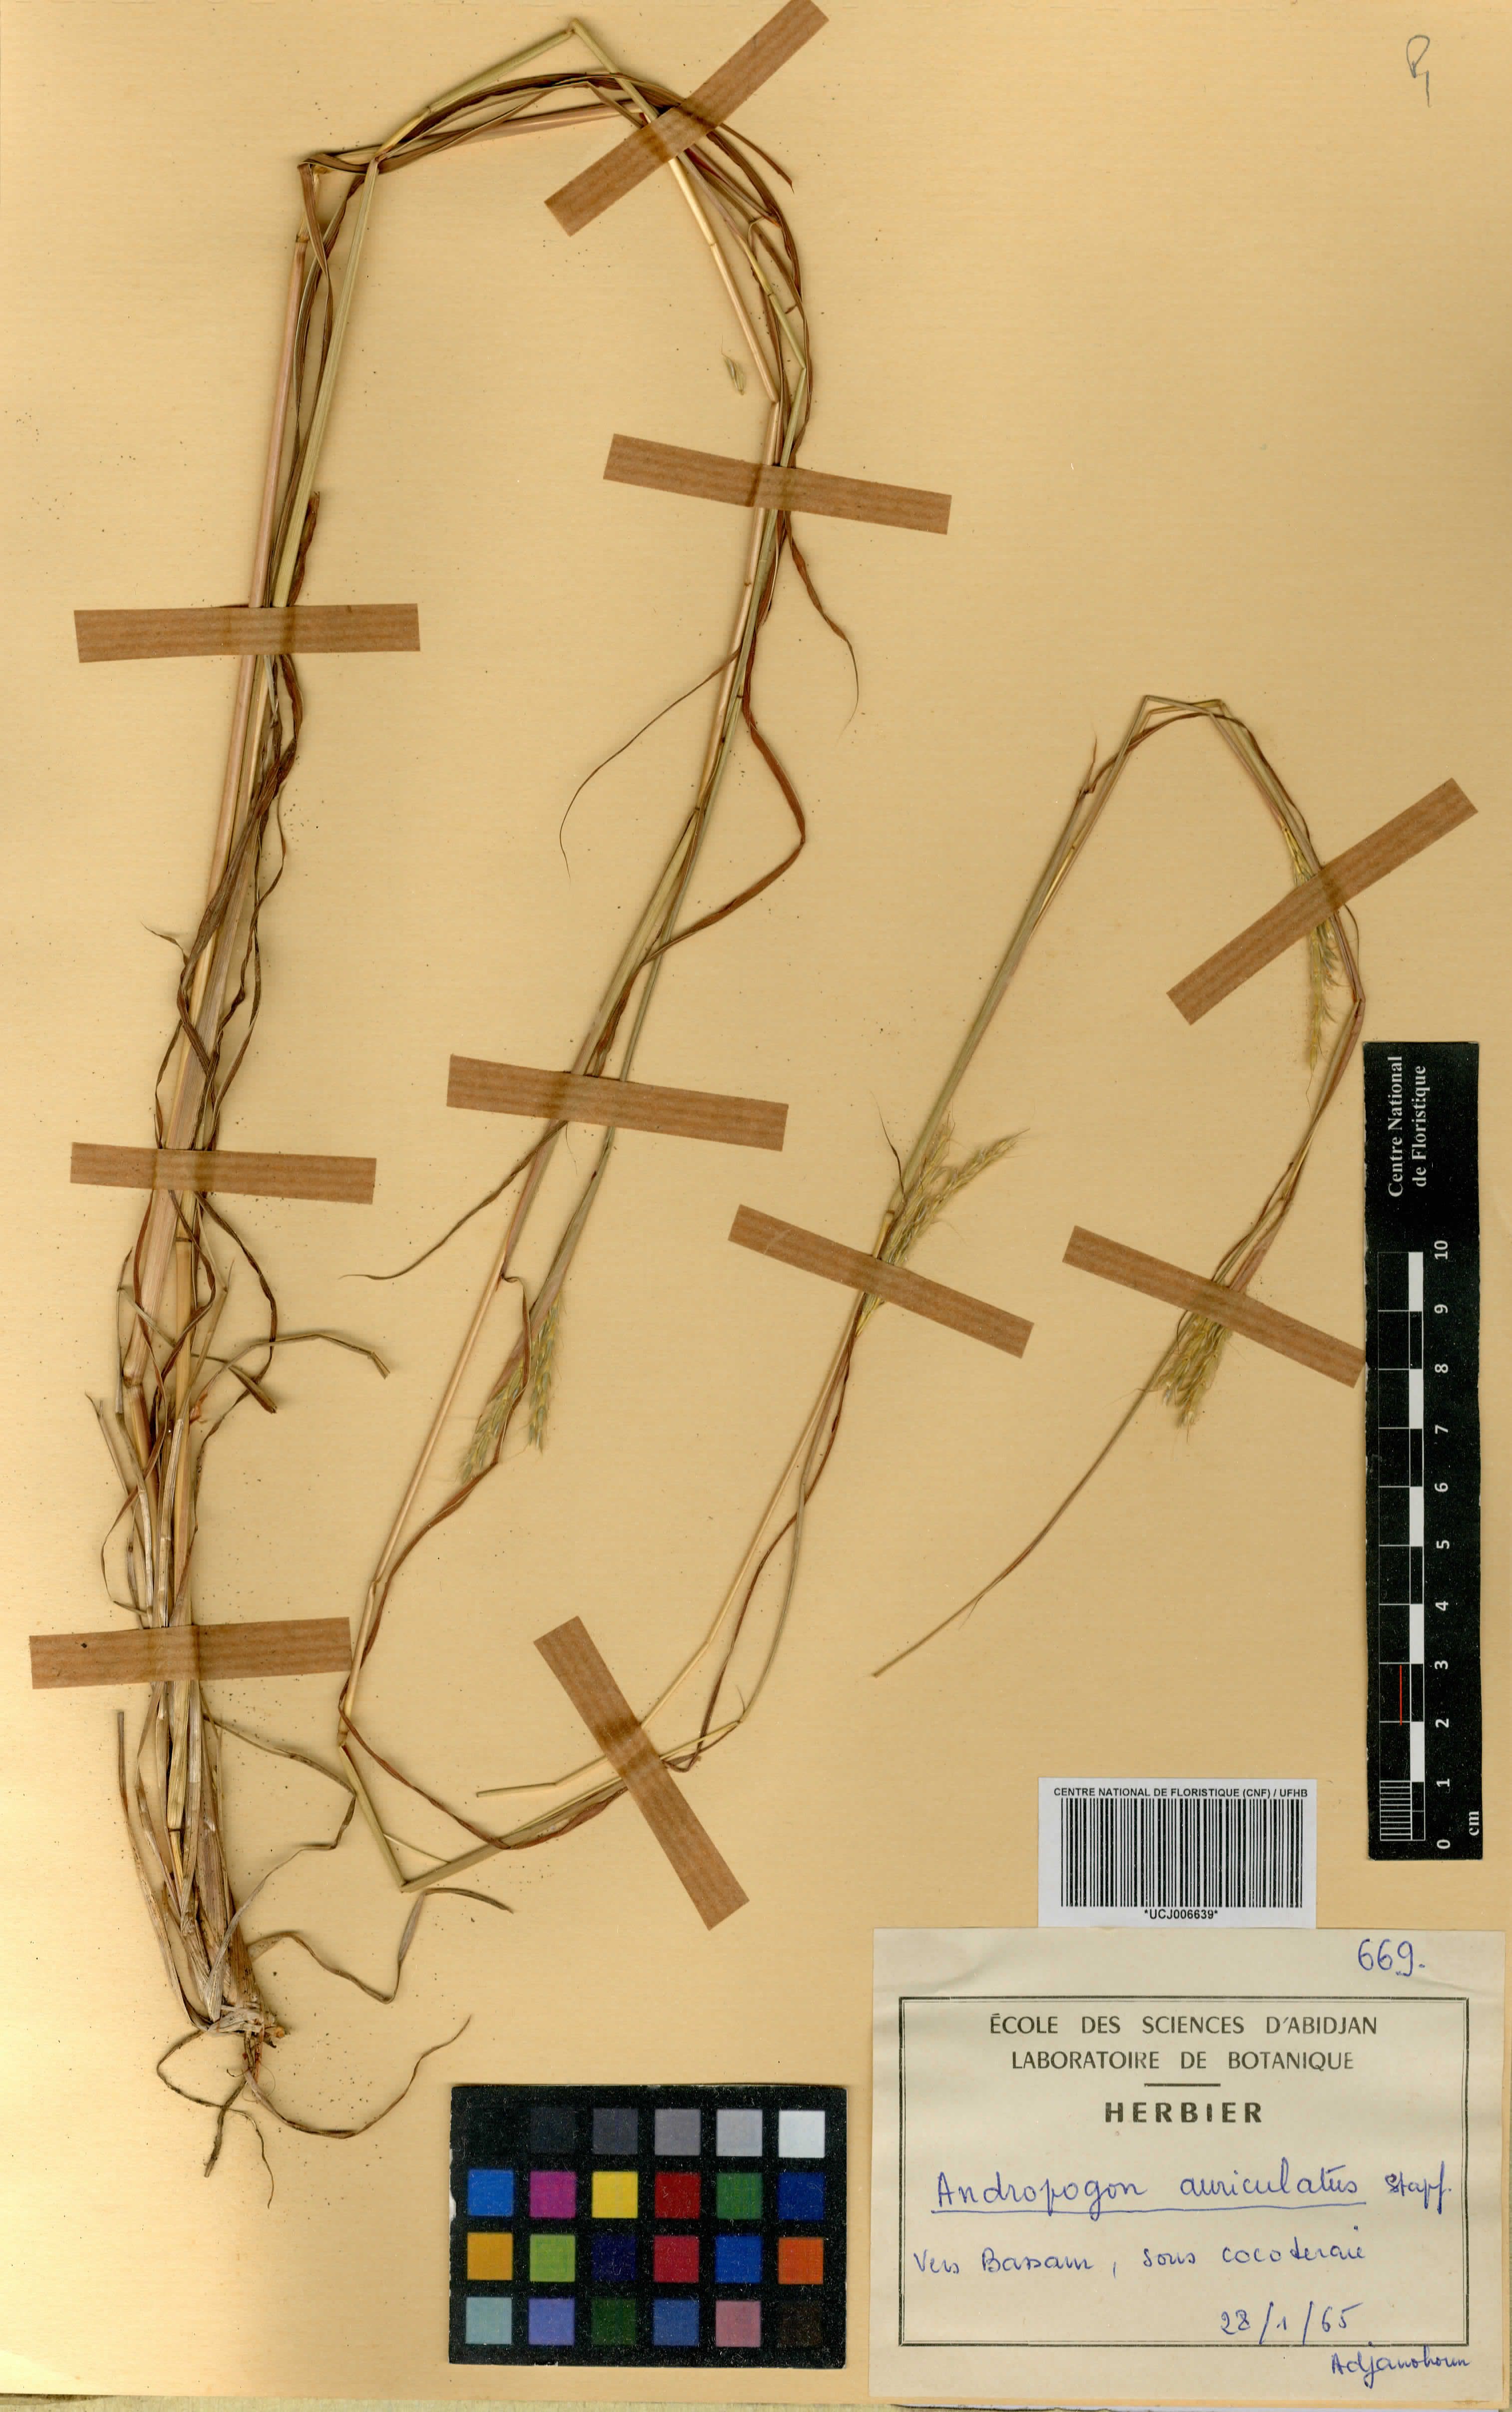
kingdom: Plantae
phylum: Tracheophyta
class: Liliopsida
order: Poales
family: Poaceae
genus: Andropogon
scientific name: Andropogon auriculatus
